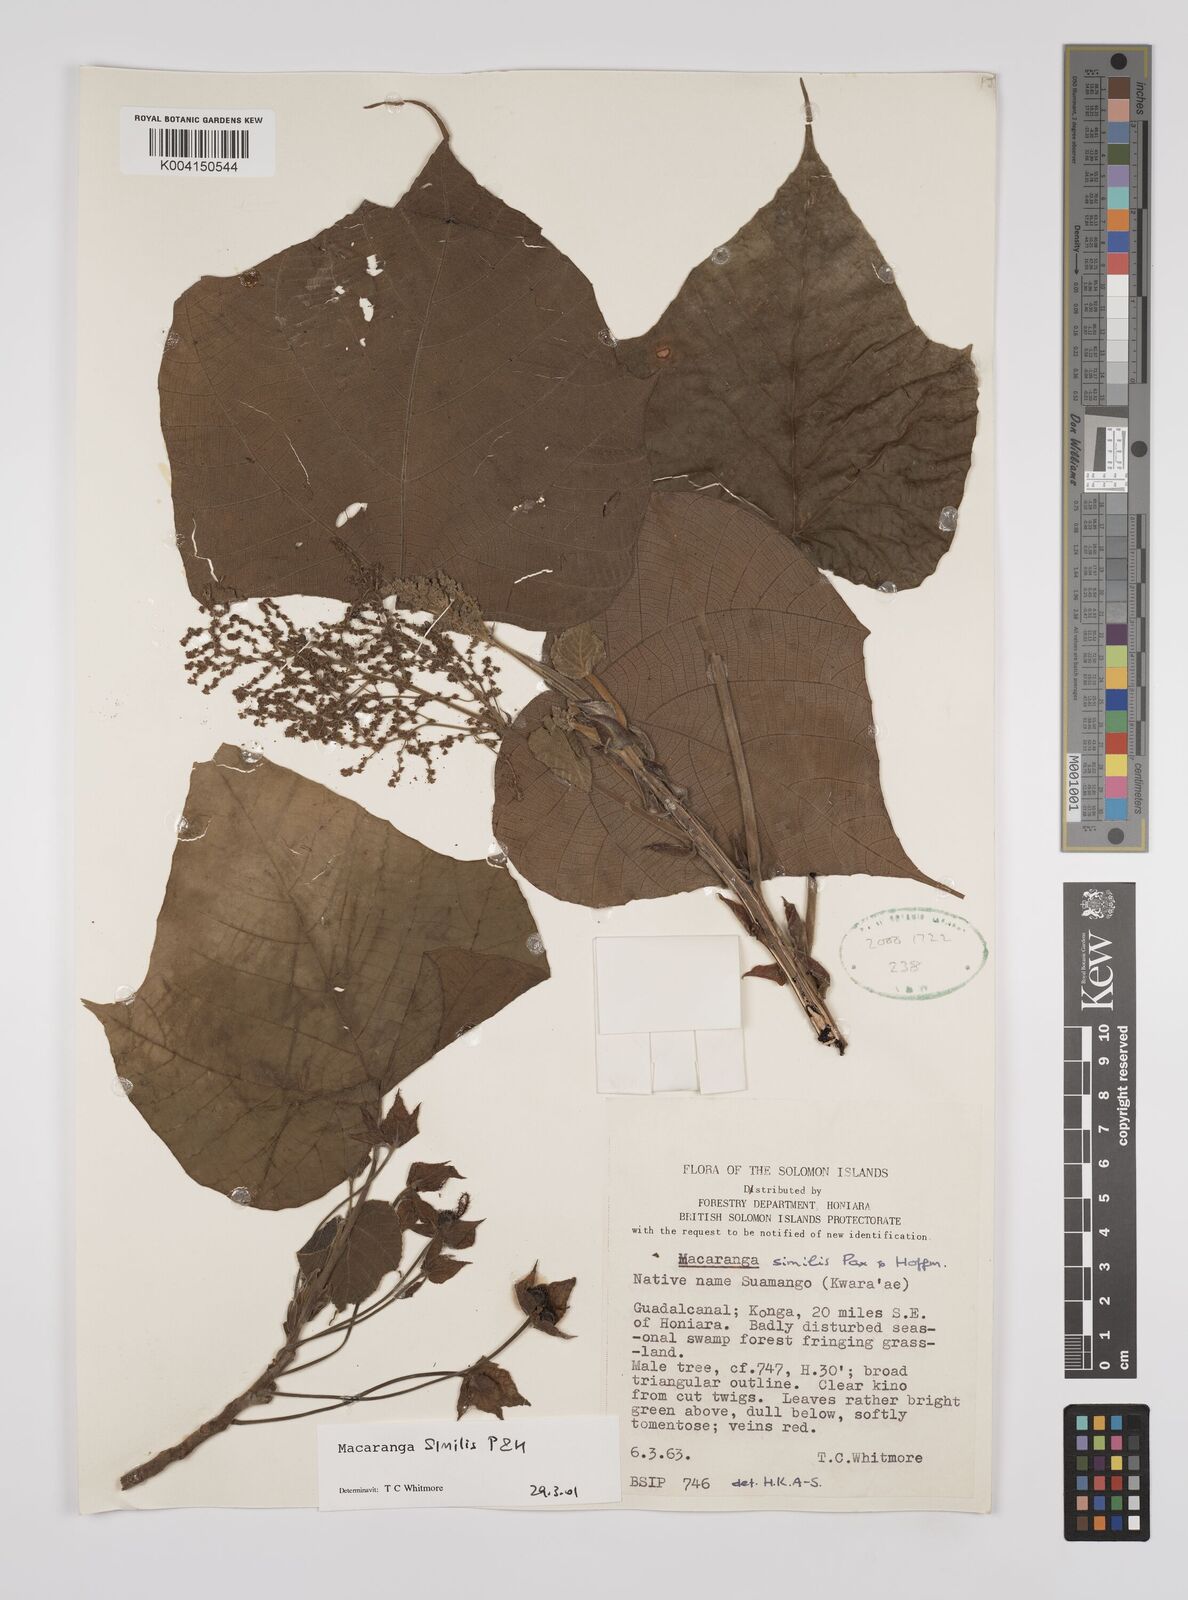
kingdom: Plantae
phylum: Tracheophyta
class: Magnoliopsida
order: Malpighiales
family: Euphorbiaceae
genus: Macaranga
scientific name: Macaranga similis
